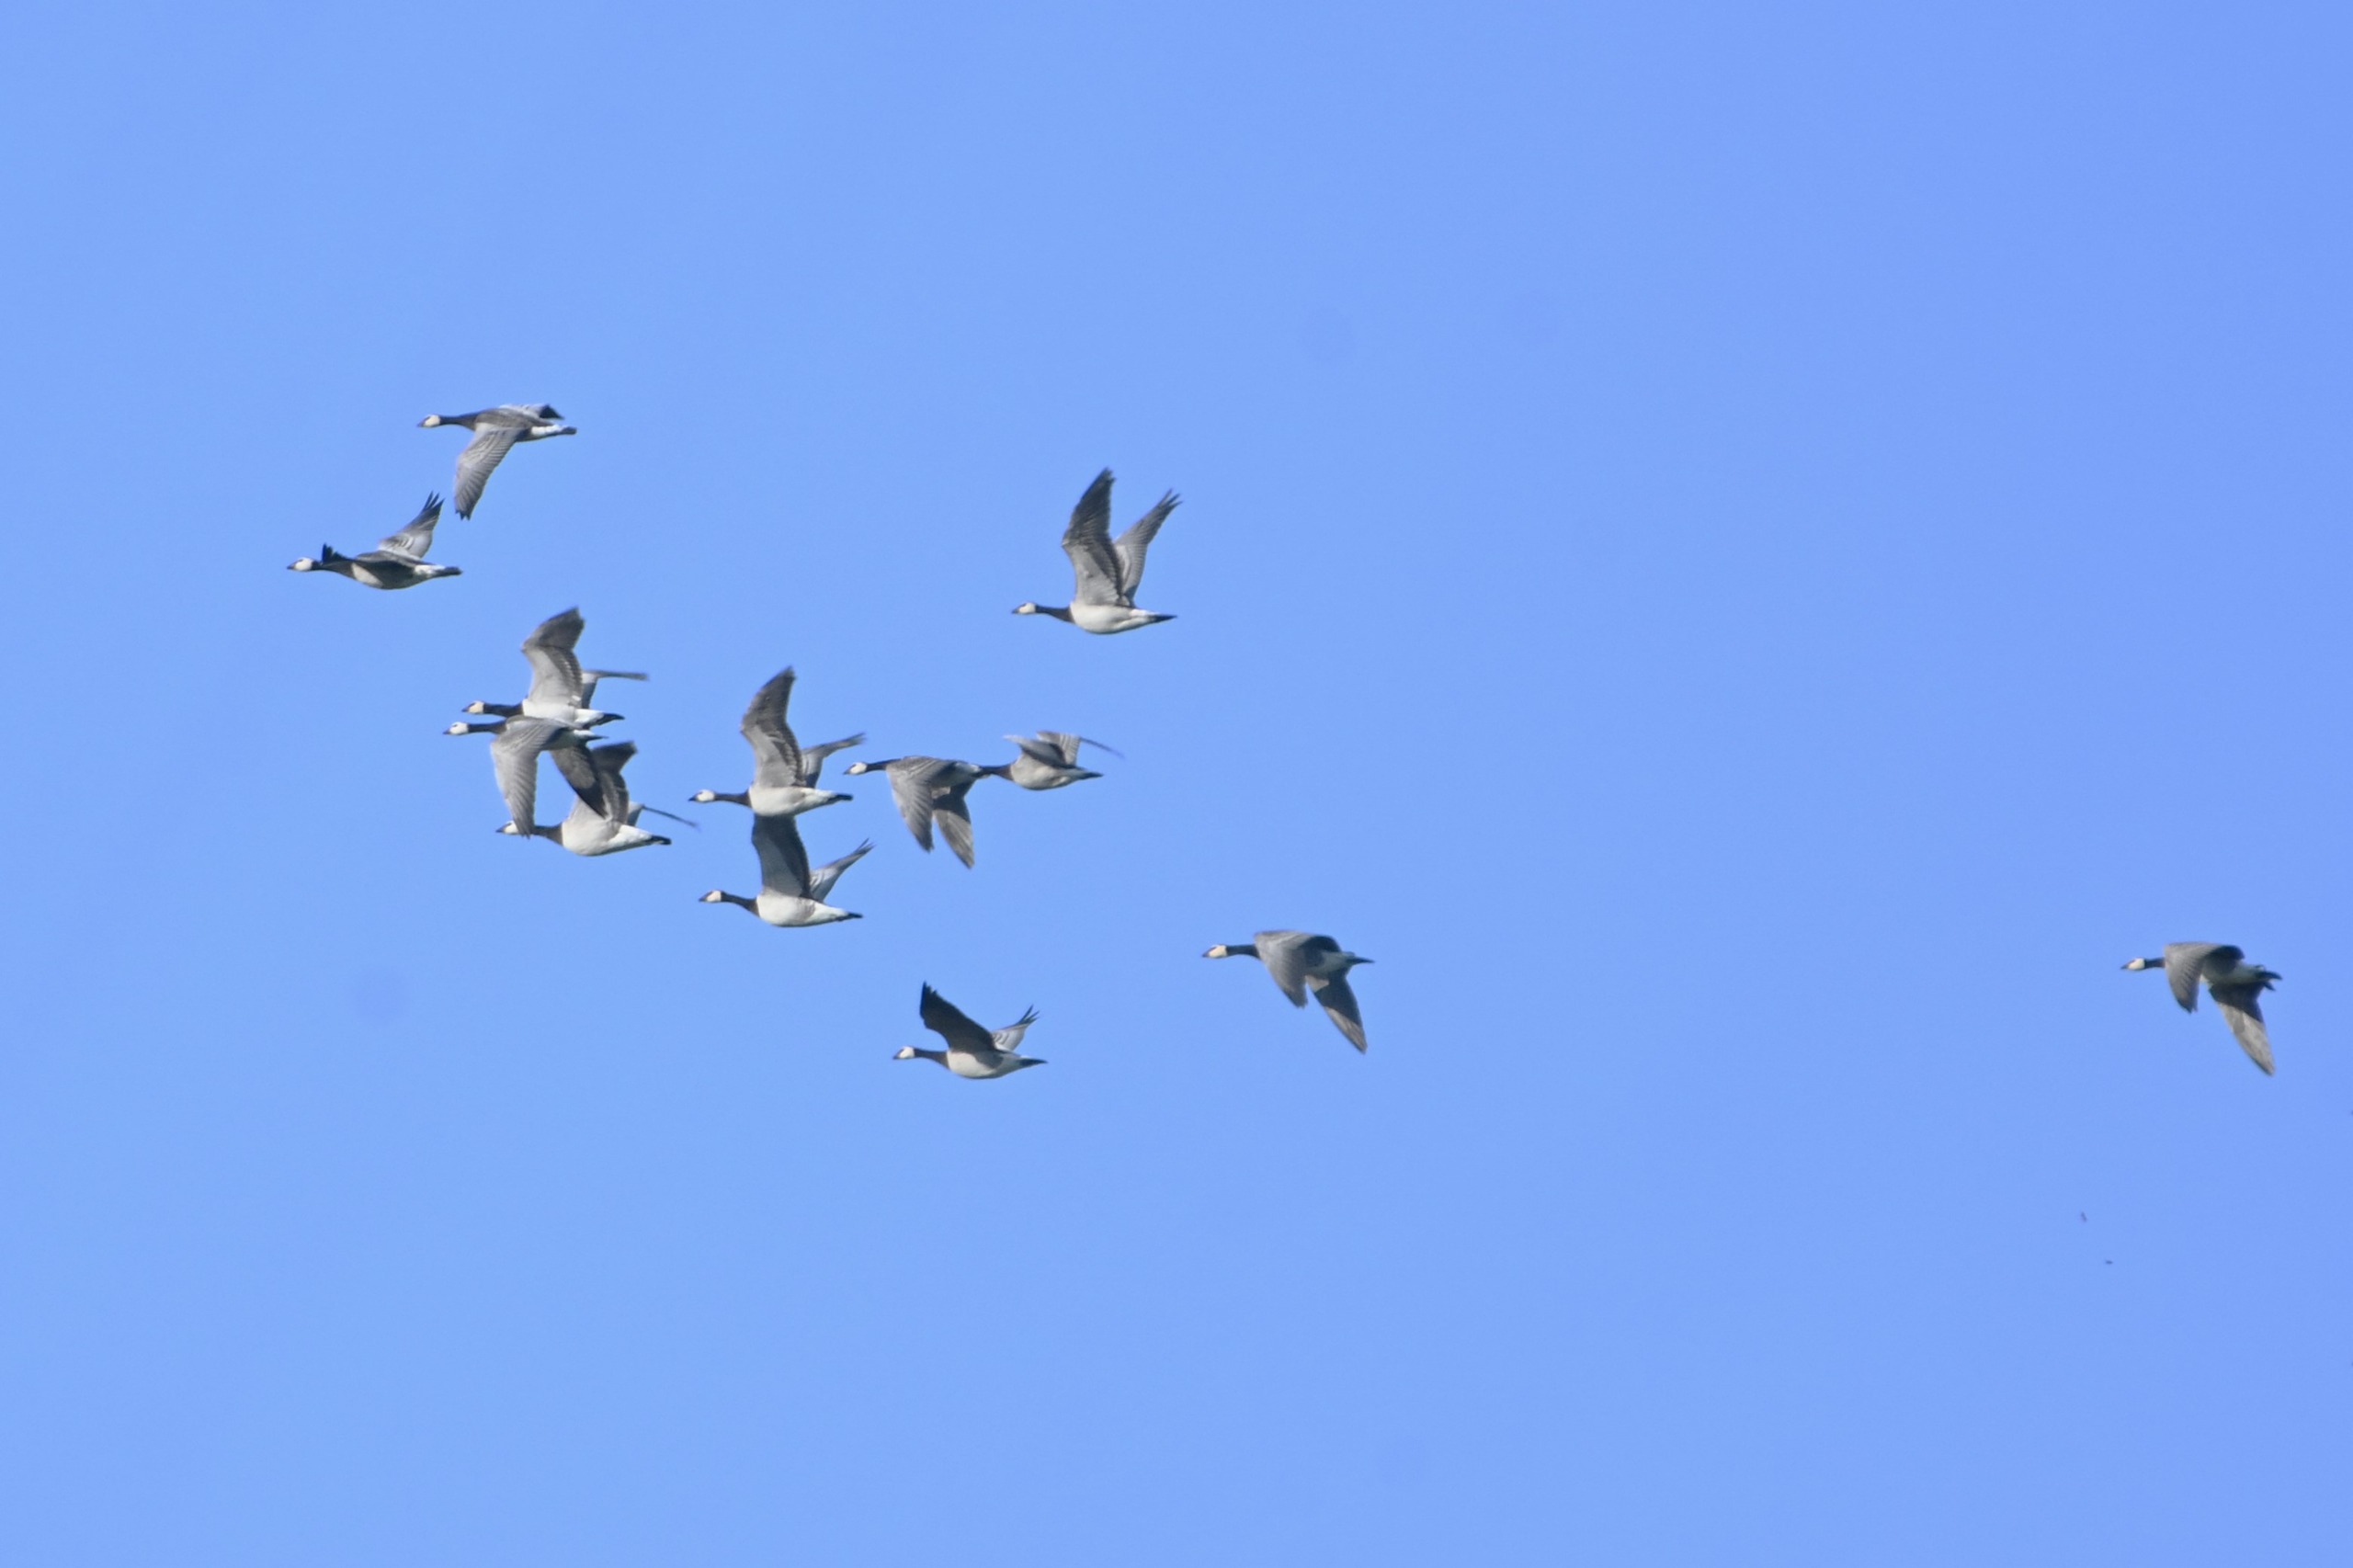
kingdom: Animalia
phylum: Chordata
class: Aves
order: Anseriformes
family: Anatidae
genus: Branta
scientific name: Branta leucopsis
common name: Bramgås
